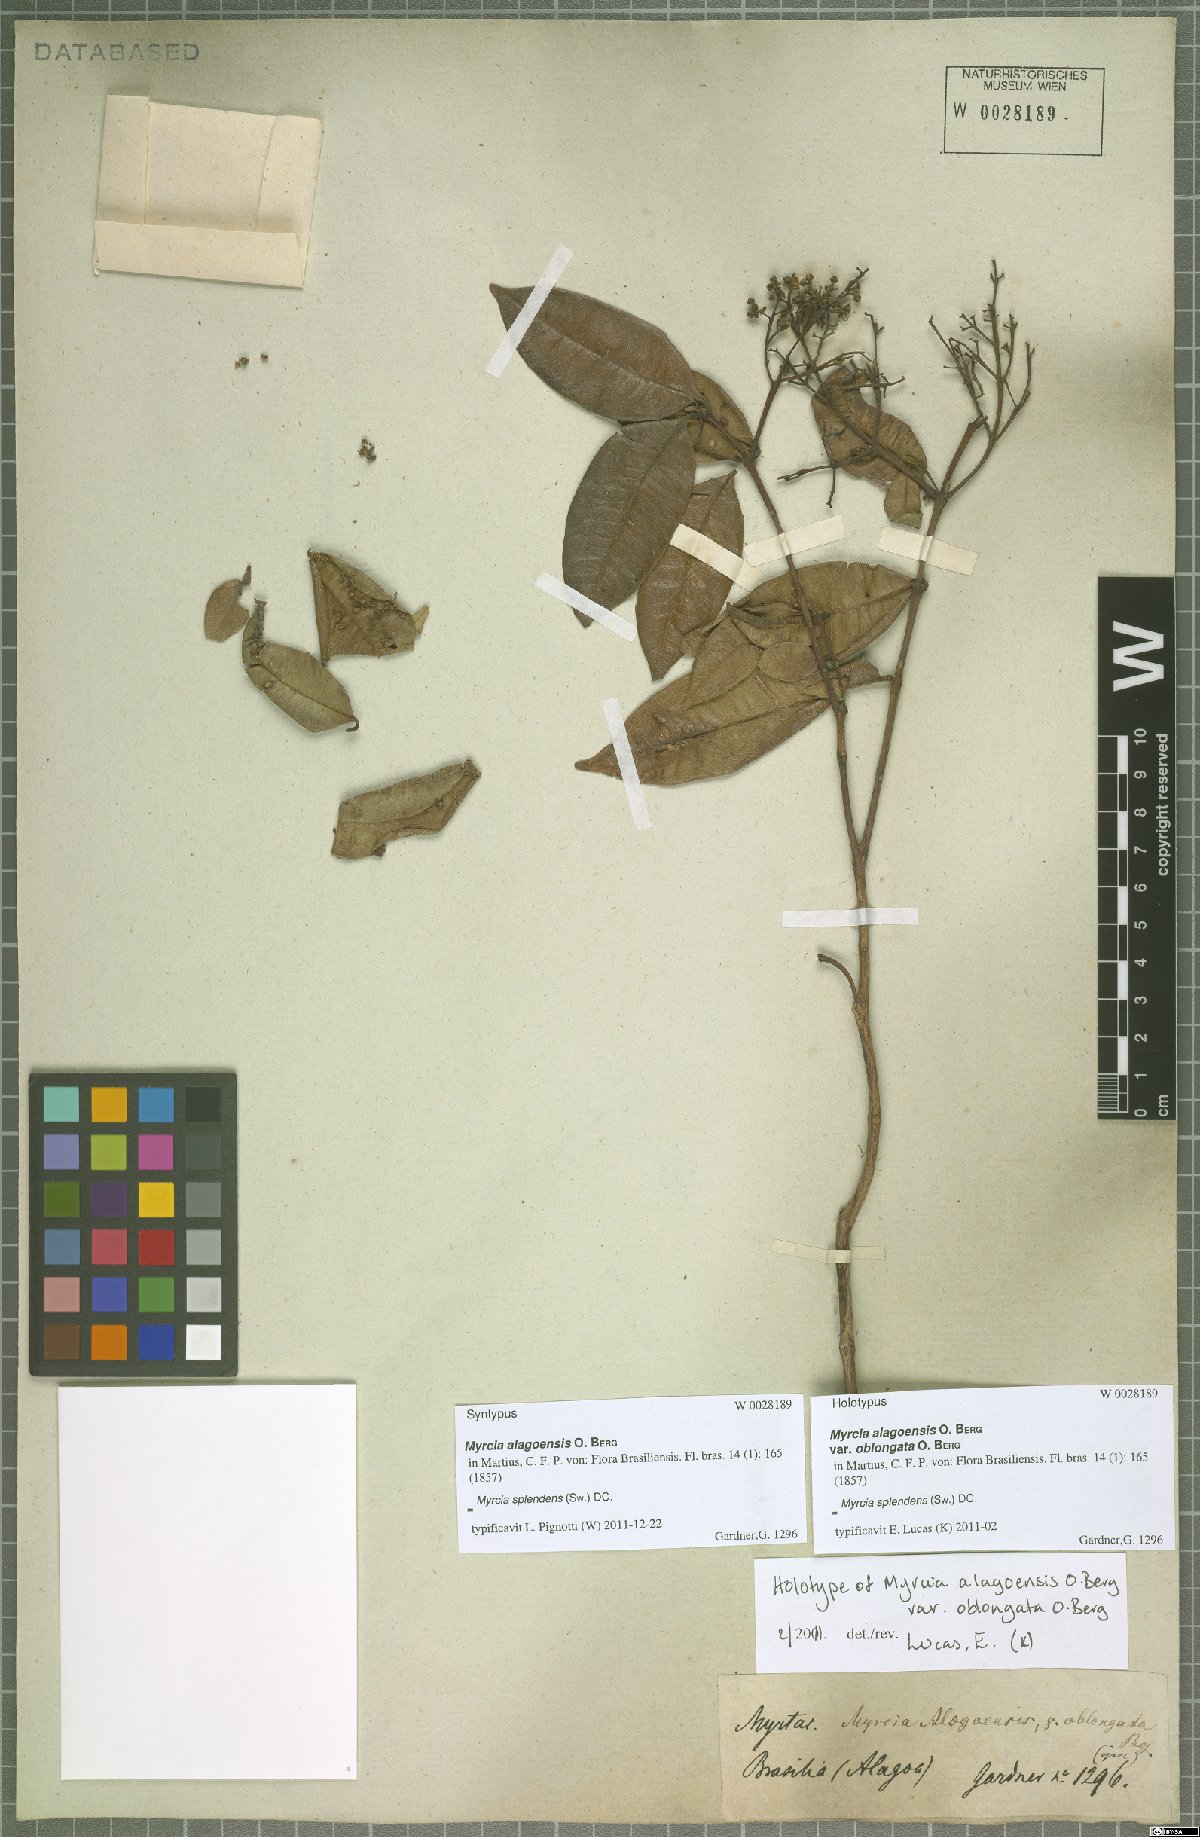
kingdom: Plantae
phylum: Tracheophyta
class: Magnoliopsida
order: Myrtales
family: Myrtaceae
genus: Myrcia
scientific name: Myrcia splendens
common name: Surinam cherry
